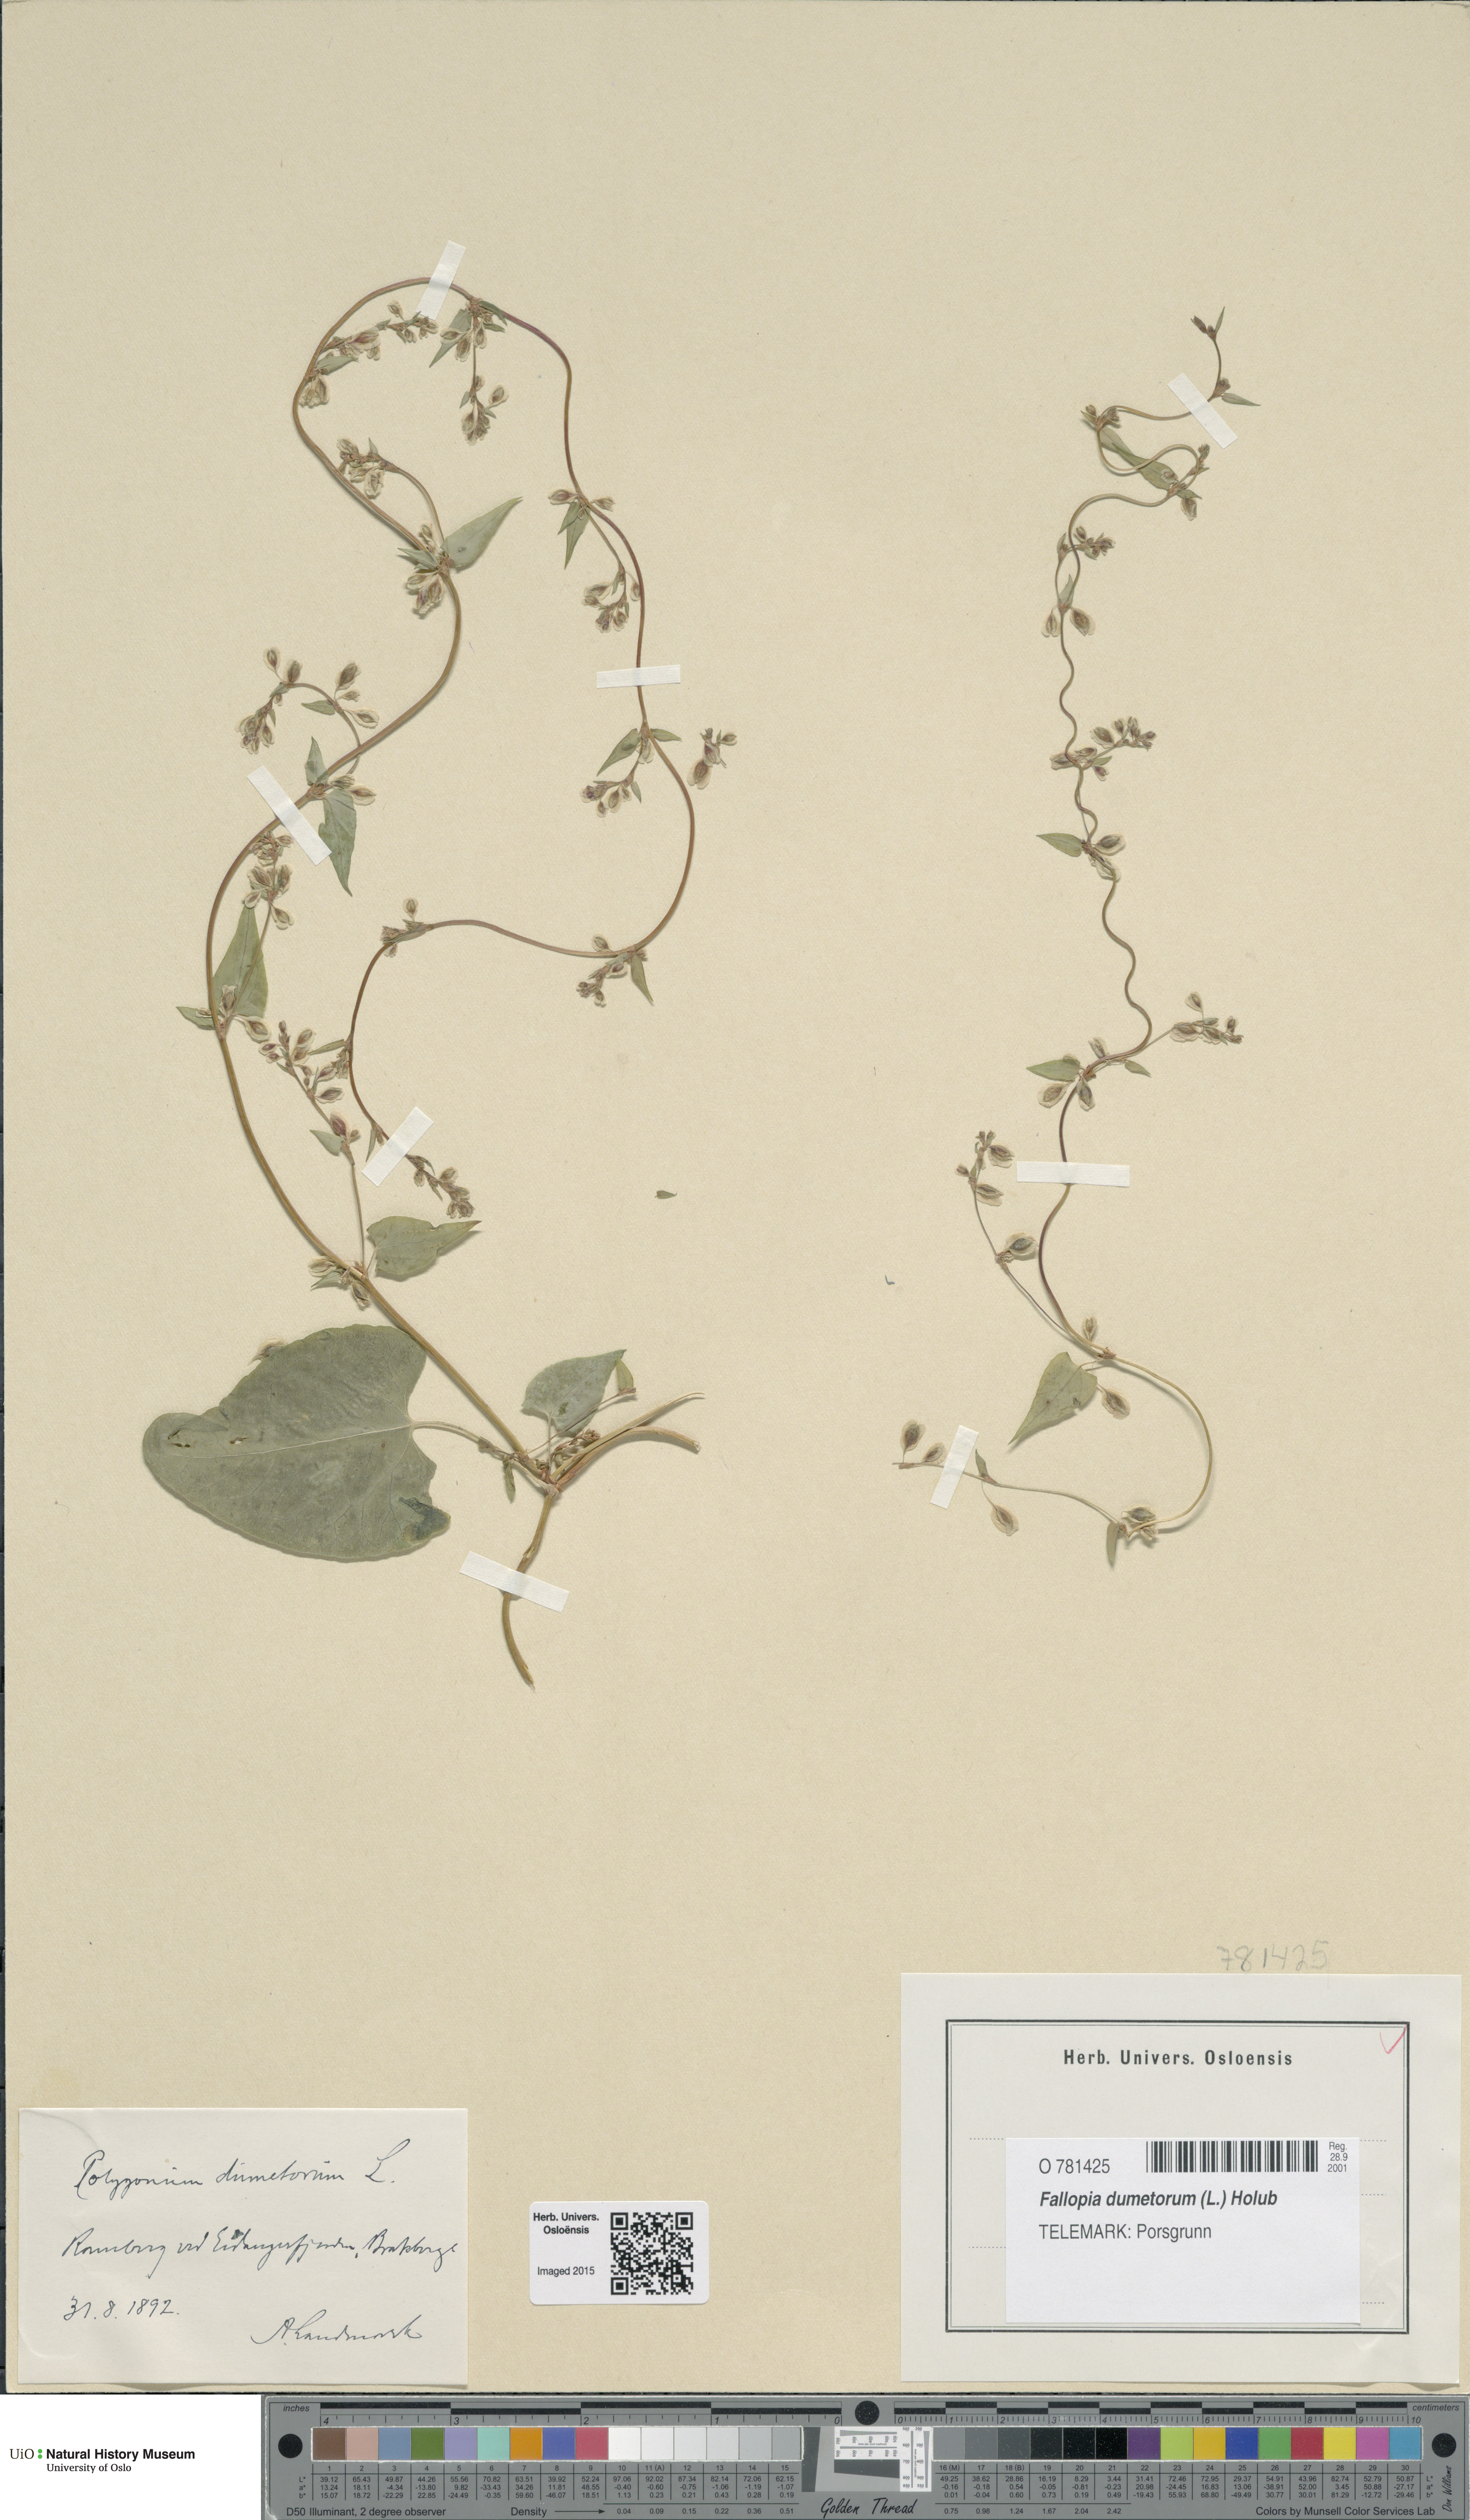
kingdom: Plantae
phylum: Tracheophyta
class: Magnoliopsida
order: Caryophyllales
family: Polygonaceae
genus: Fallopia
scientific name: Fallopia dumetorum
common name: Copse-bindweed
